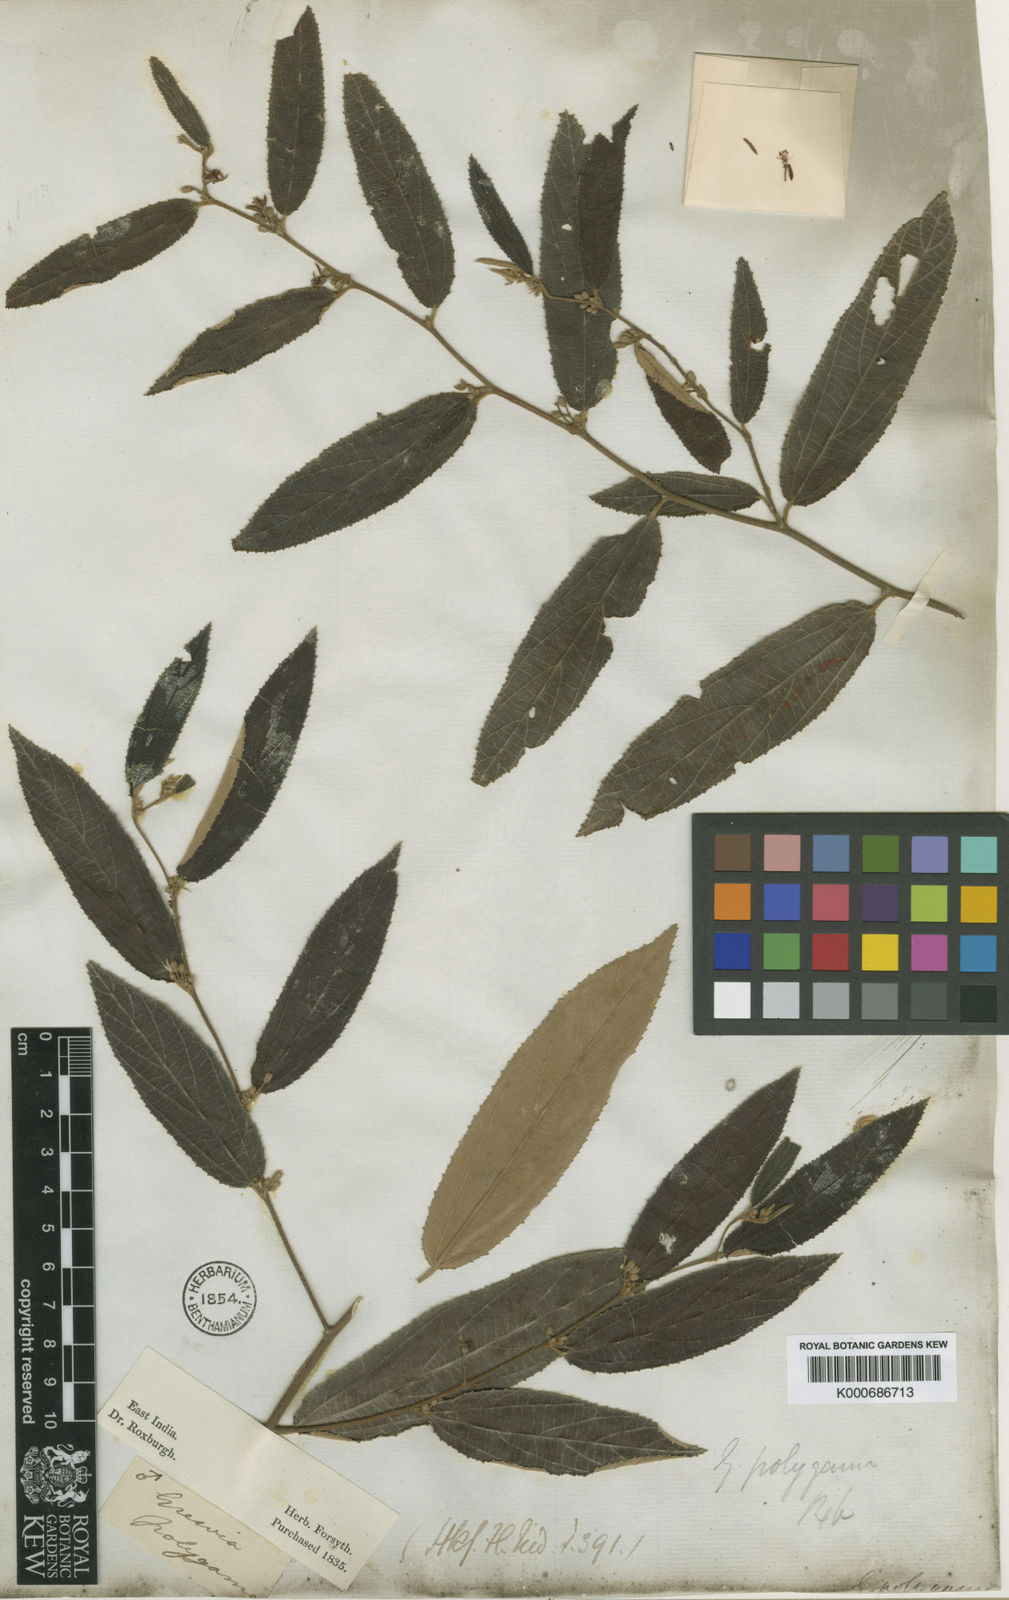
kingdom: Plantae
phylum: Tracheophyta
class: Magnoliopsida
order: Malvales
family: Malvaceae
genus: Grewia
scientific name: Grewia excelsa
